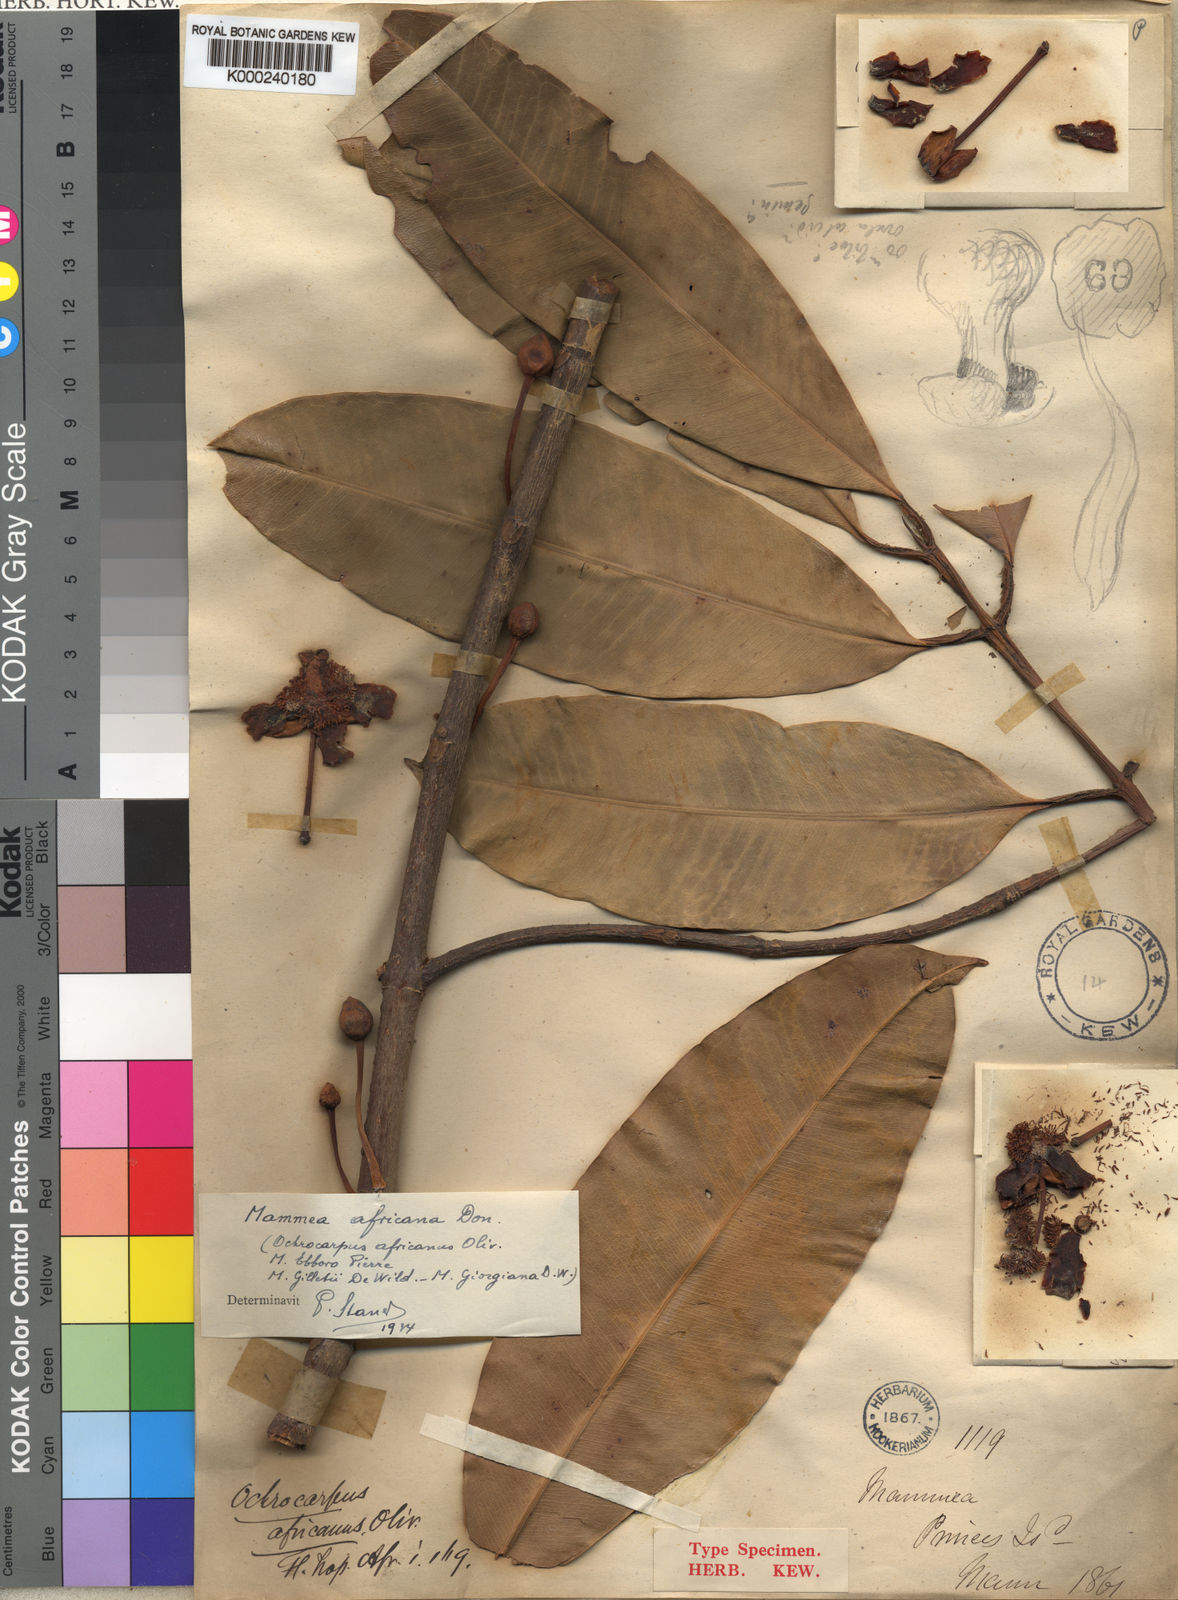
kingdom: Plantae
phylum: Tracheophyta
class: Magnoliopsida
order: Malpighiales
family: Calophyllaceae
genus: Mammea
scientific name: Mammea
